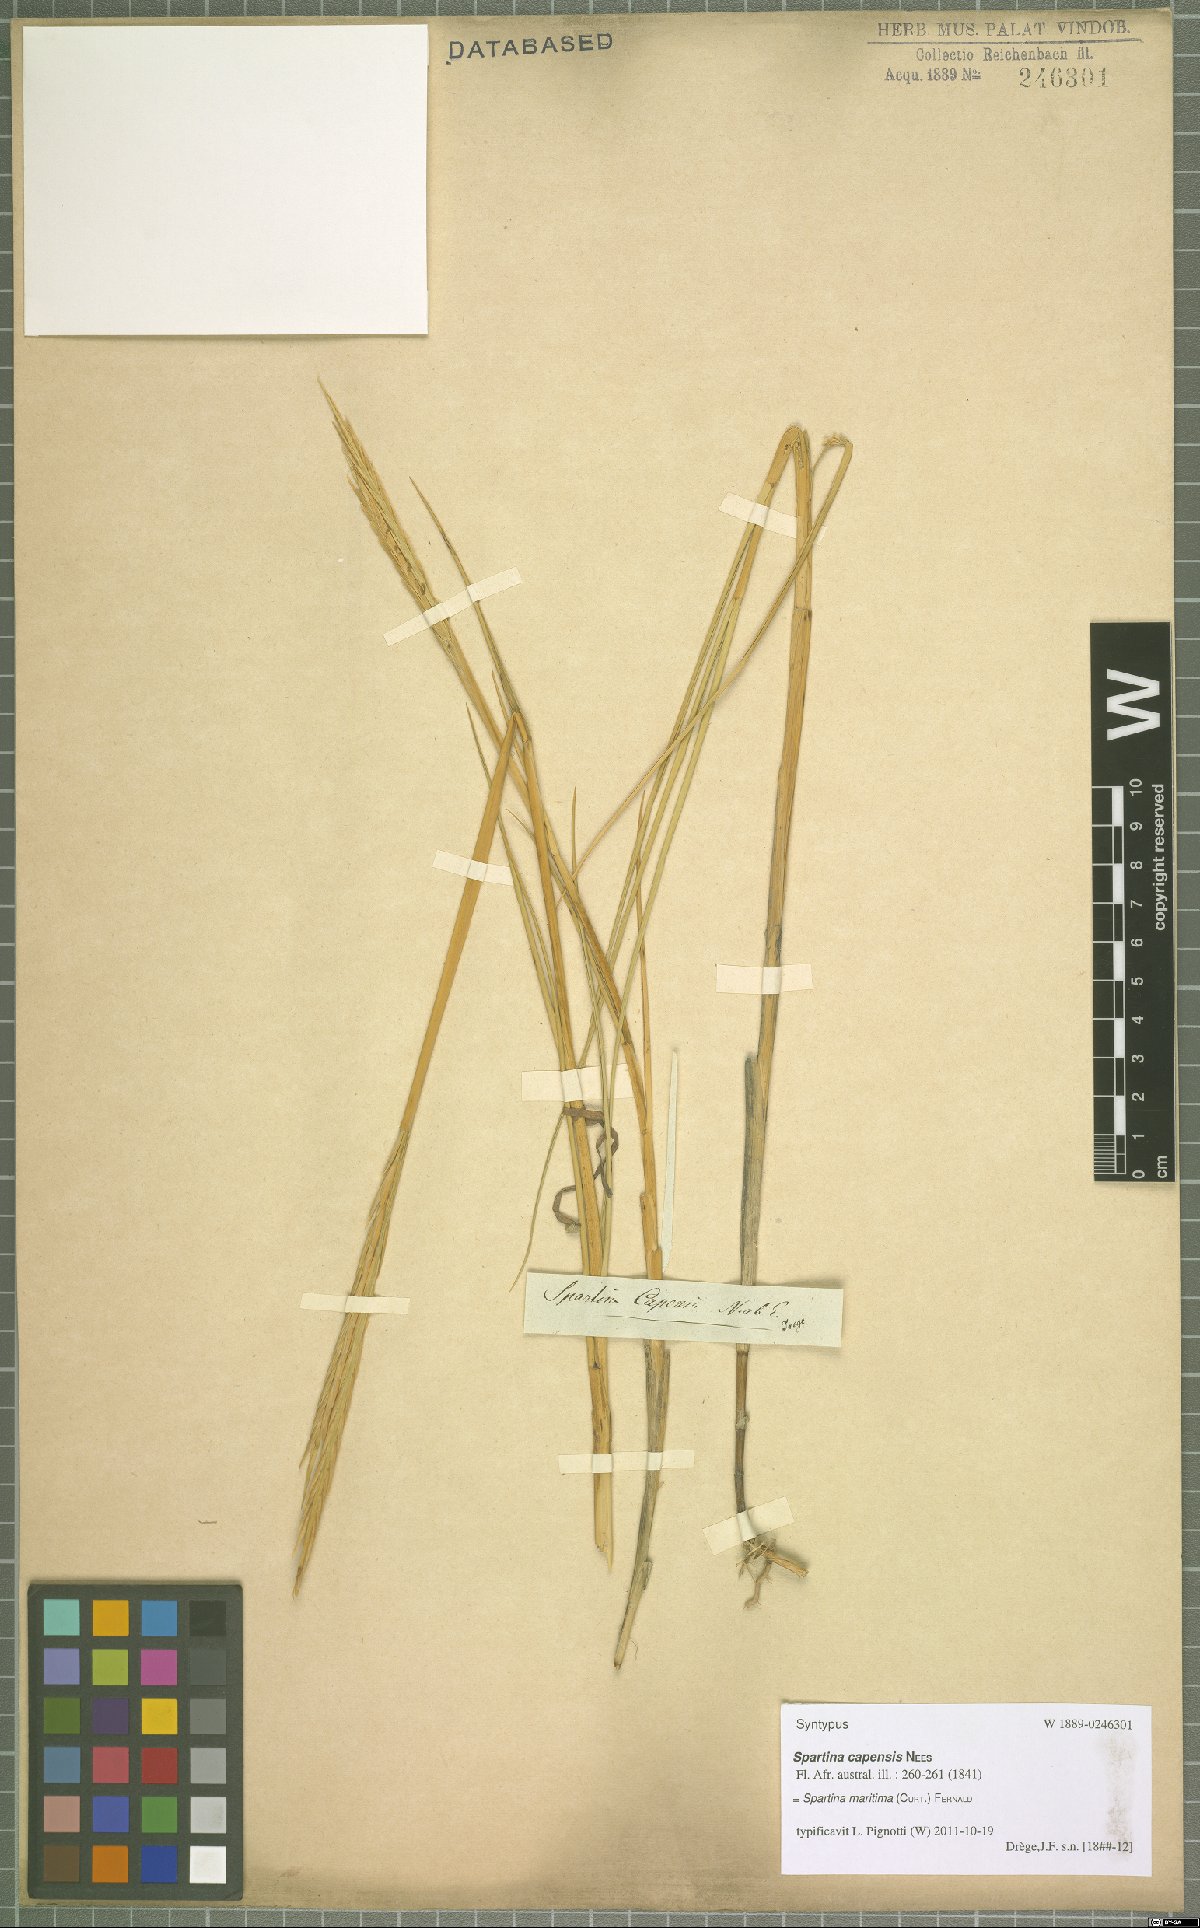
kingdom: Plantae
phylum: Tracheophyta
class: Liliopsida
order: Poales
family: Poaceae
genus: Sporobolus
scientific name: Sporobolus maritimus
